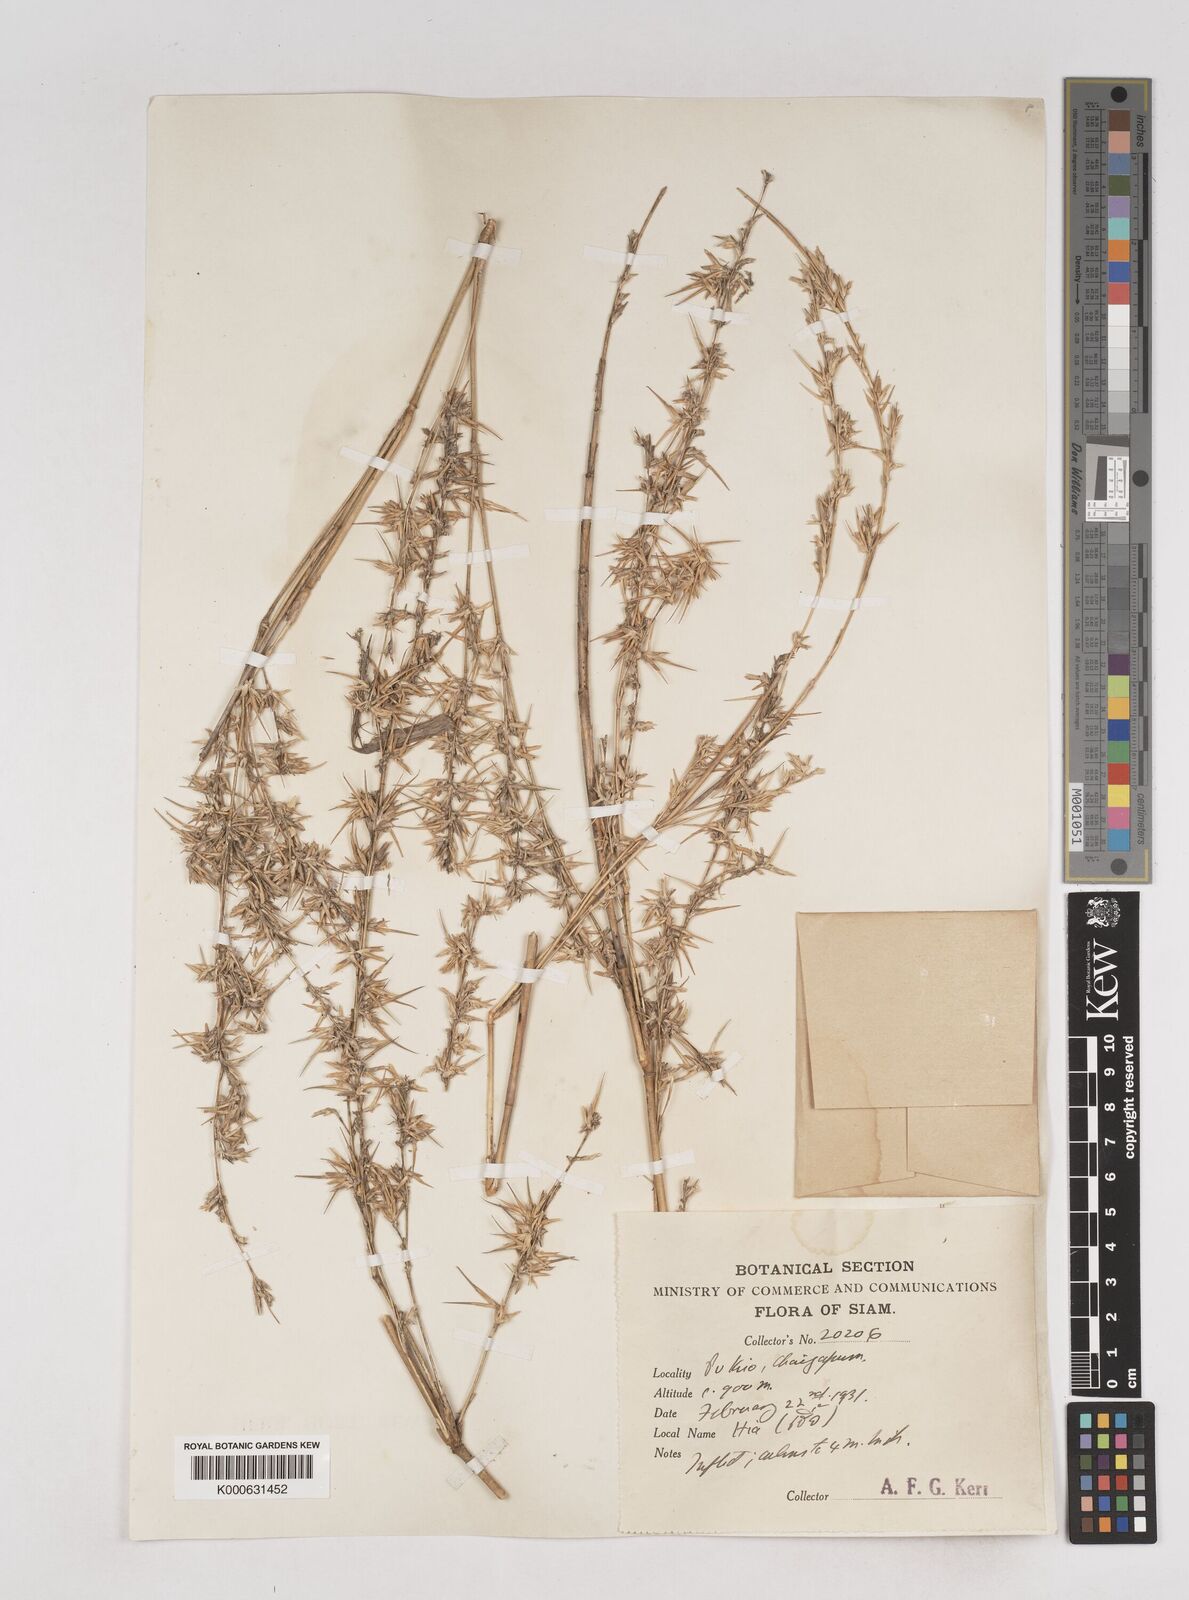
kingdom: Plantae
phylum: Tracheophyta
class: Liliopsida
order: Poales
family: Poaceae
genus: Schizostachyum
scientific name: Schizostachyum
